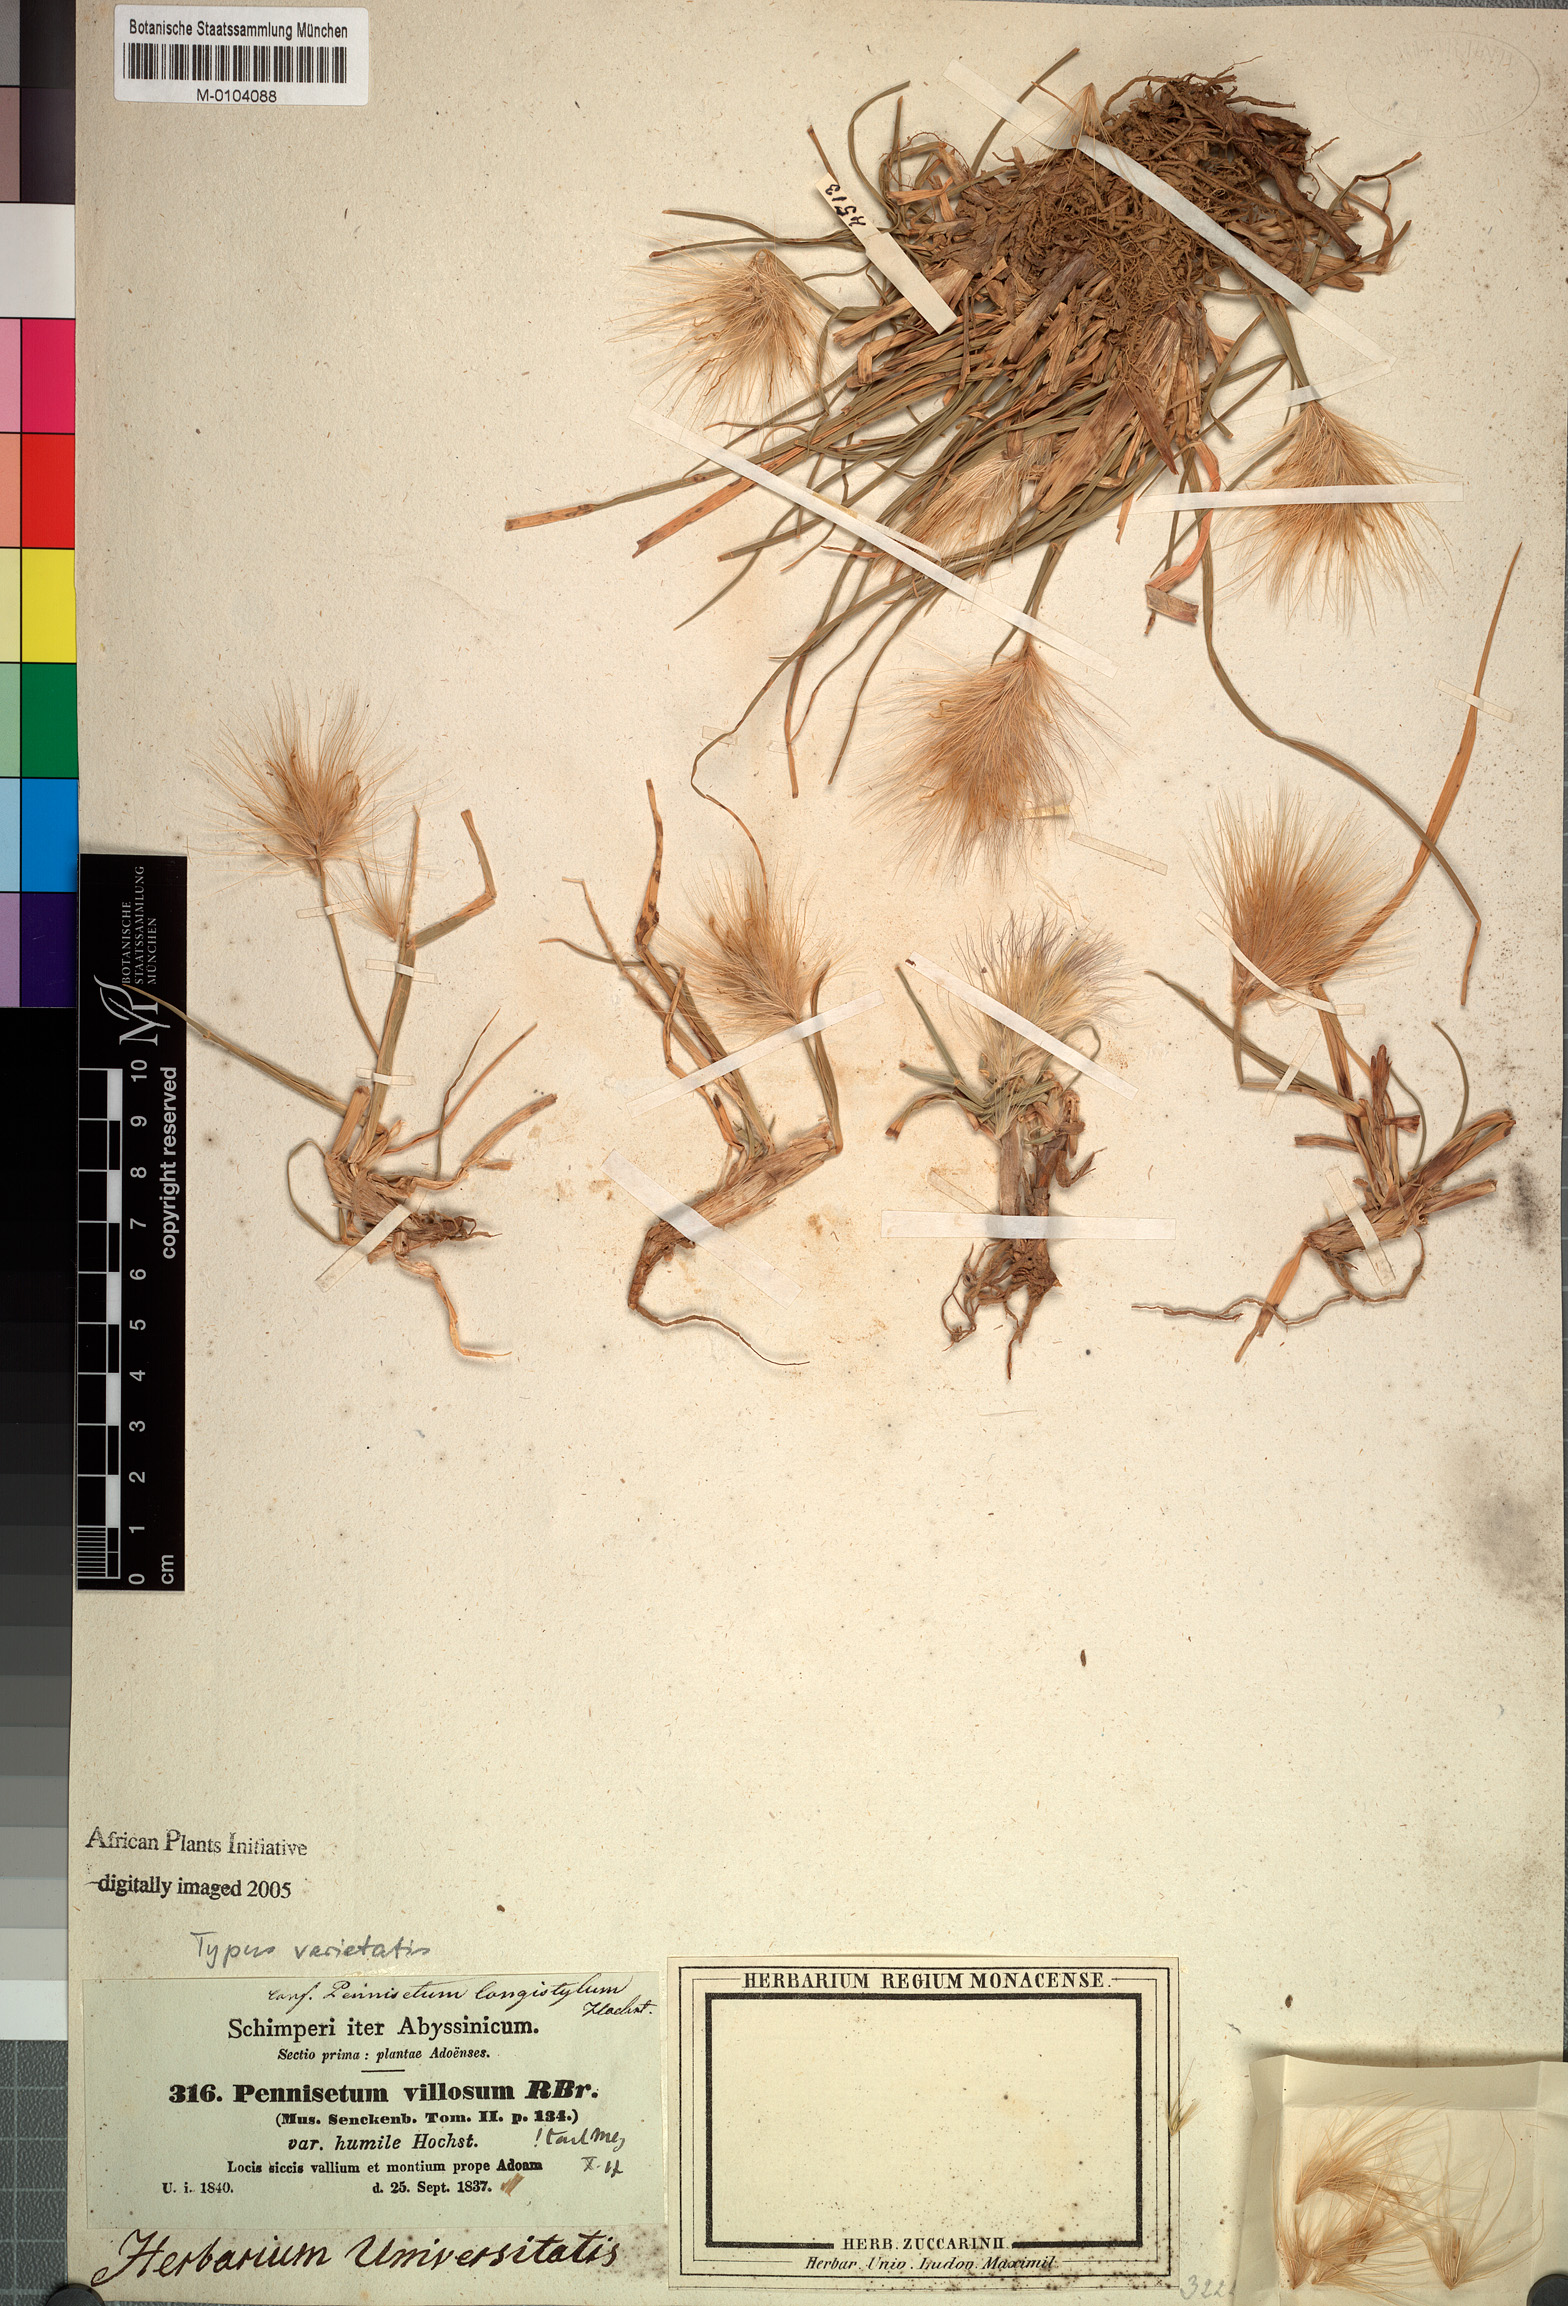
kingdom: Plantae
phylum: Tracheophyta
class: Liliopsida
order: Poales
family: Poaceae
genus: Cenchrus
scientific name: Cenchrus longisetus
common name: Feathertop
